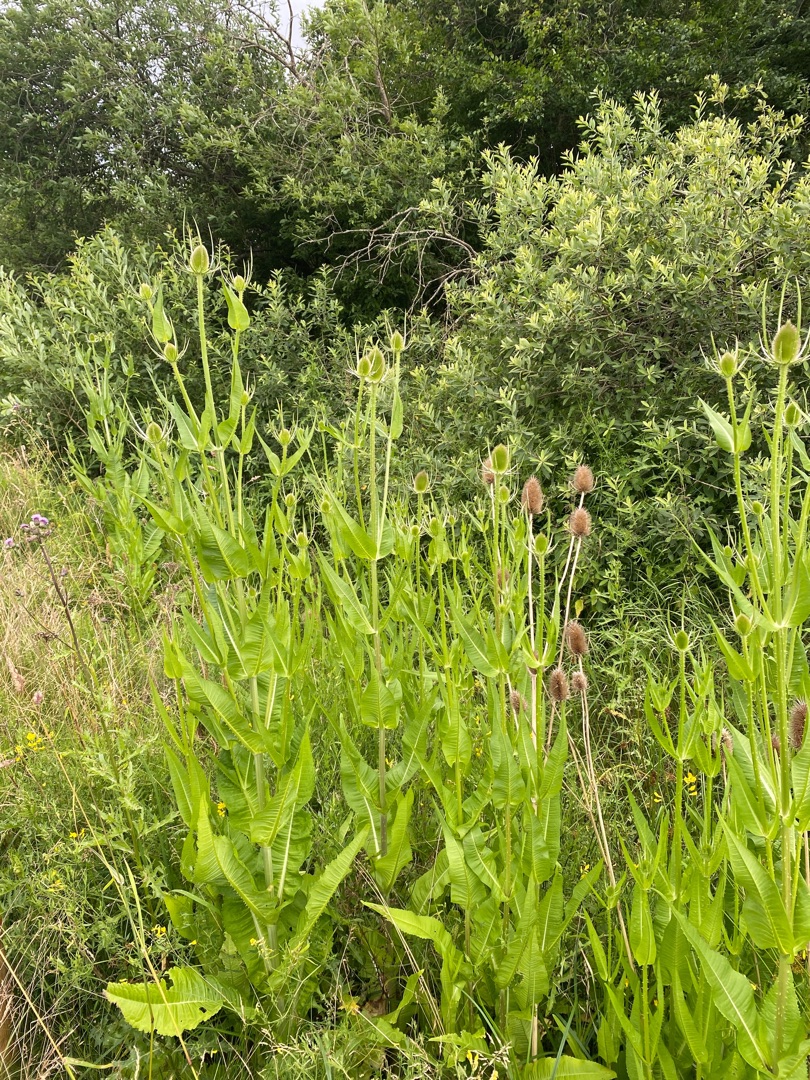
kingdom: Plantae
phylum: Tracheophyta
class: Magnoliopsida
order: Dipsacales
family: Caprifoliaceae
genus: Dipsacus
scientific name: Dipsacus fullonum
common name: Gærde-kartebolle
